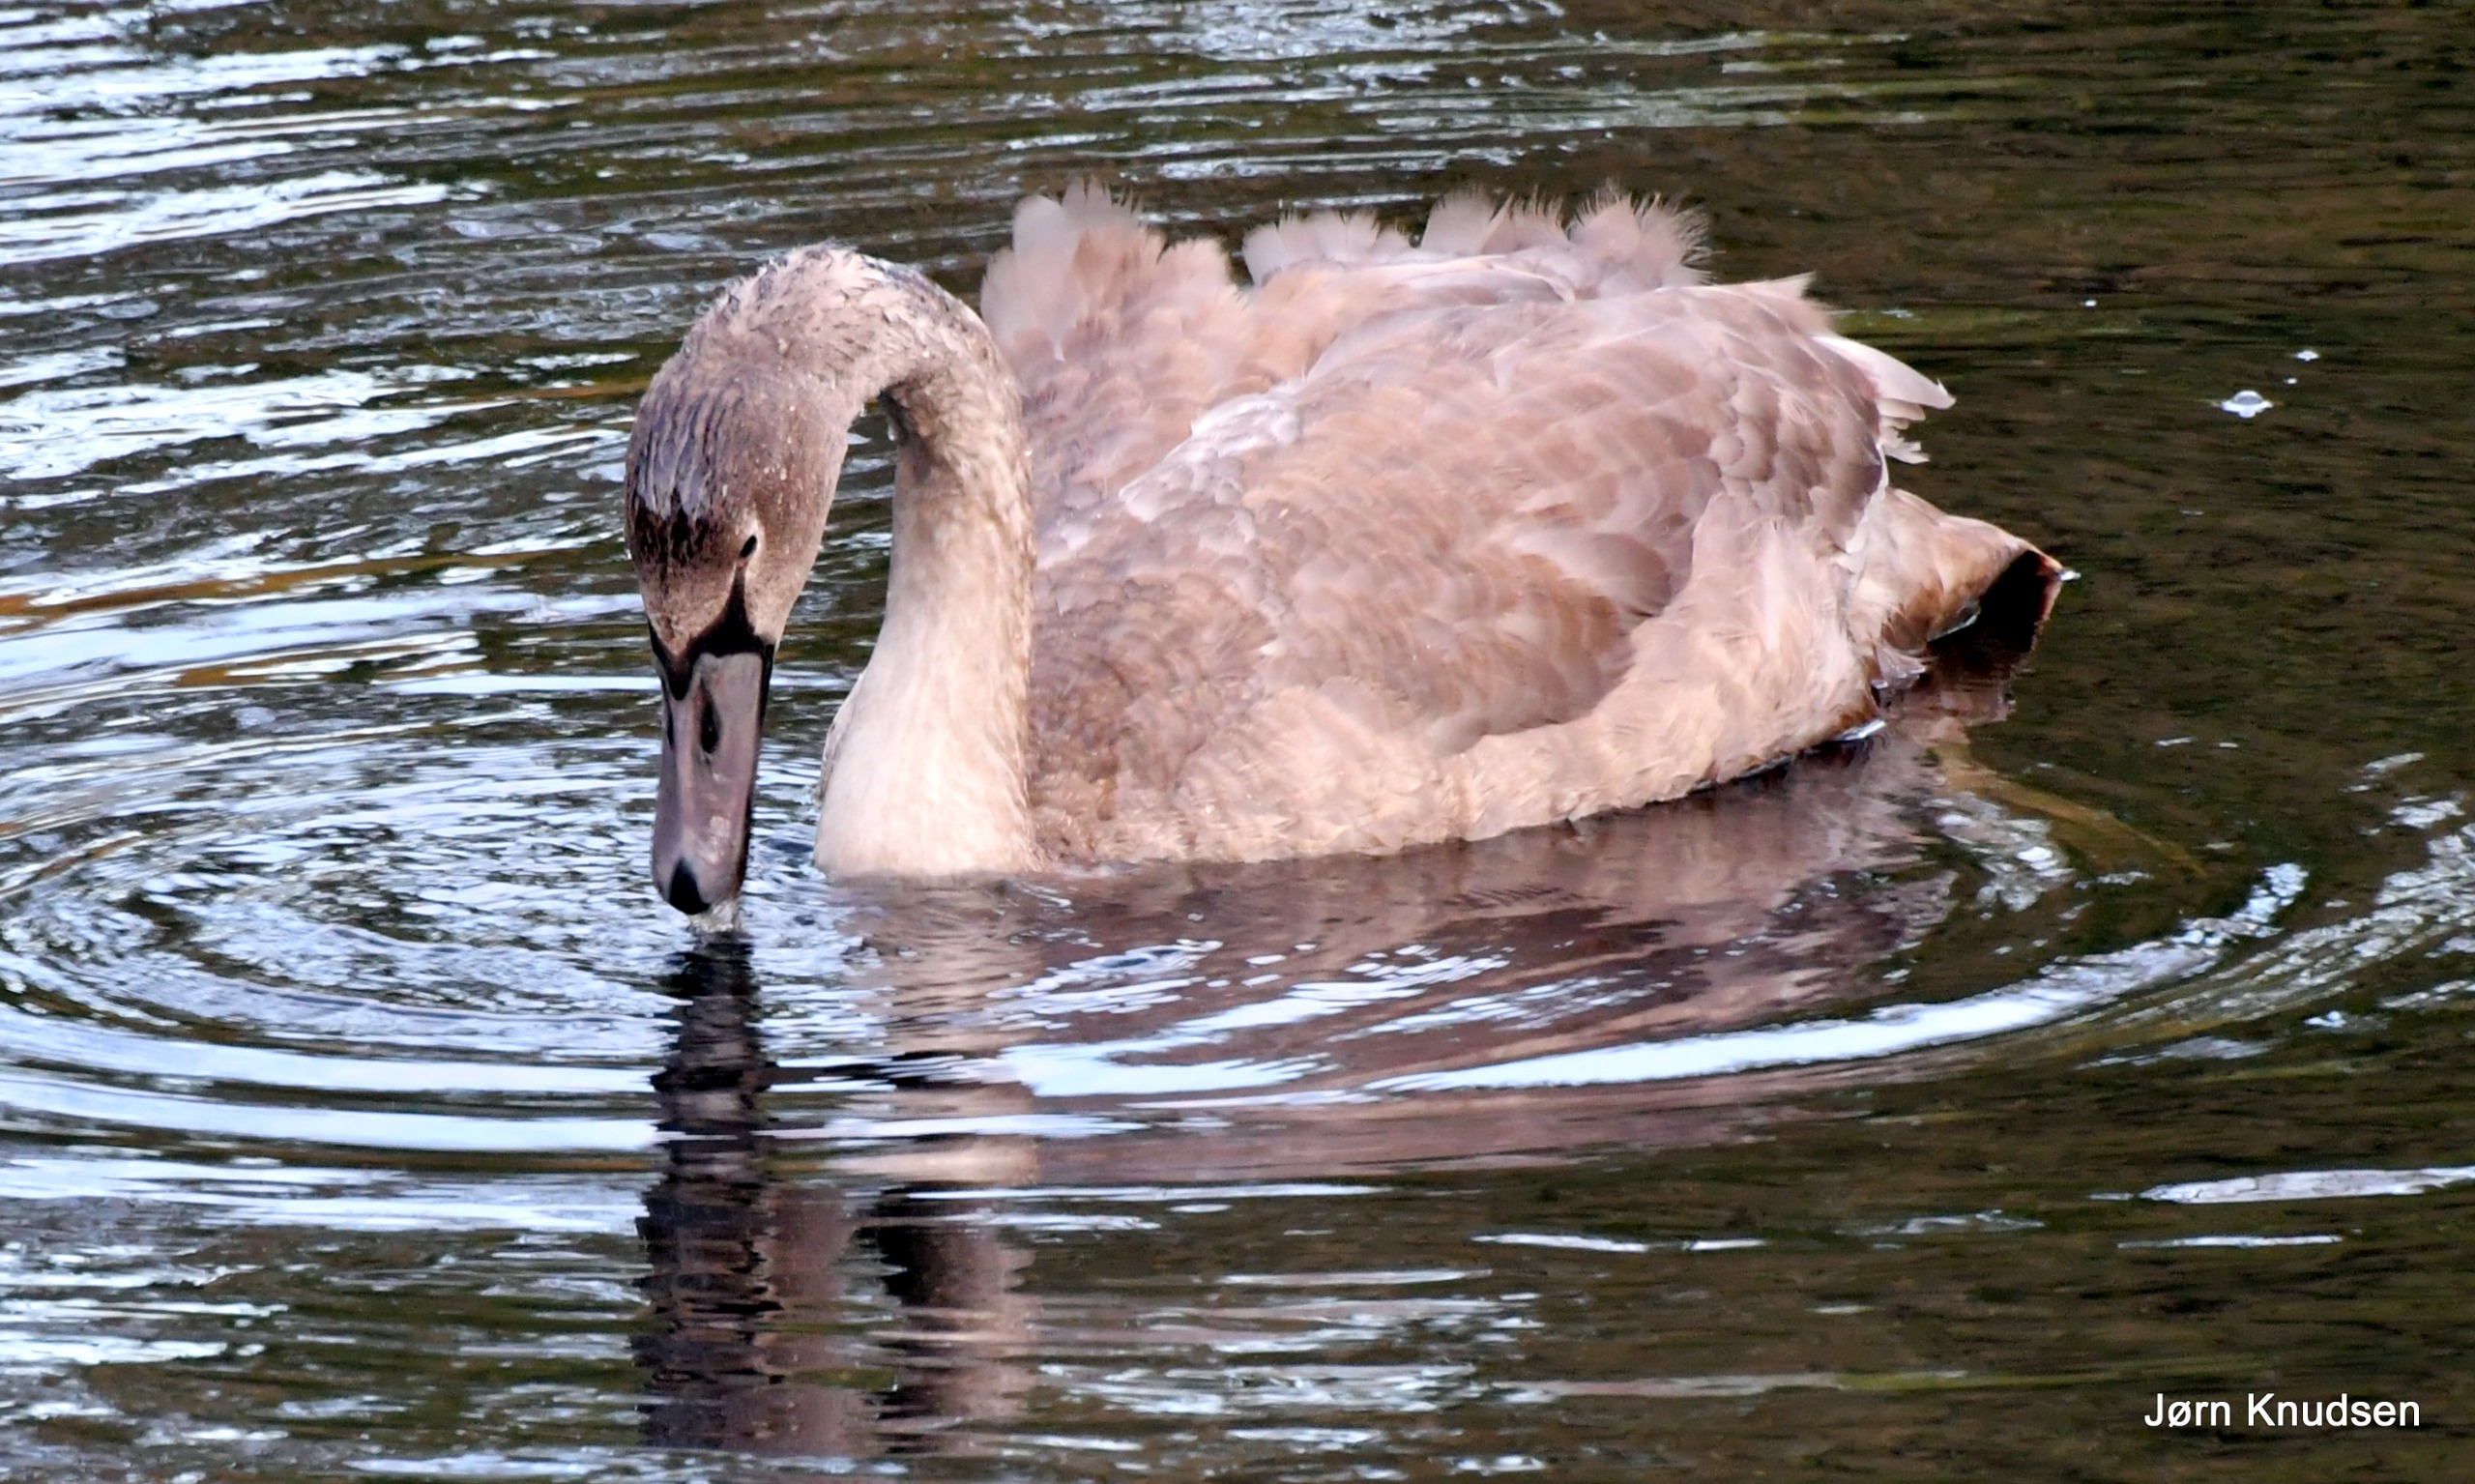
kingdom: Animalia
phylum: Chordata
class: Aves
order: Anseriformes
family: Anatidae
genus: Cygnus
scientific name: Cygnus olor
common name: Knopsvane
